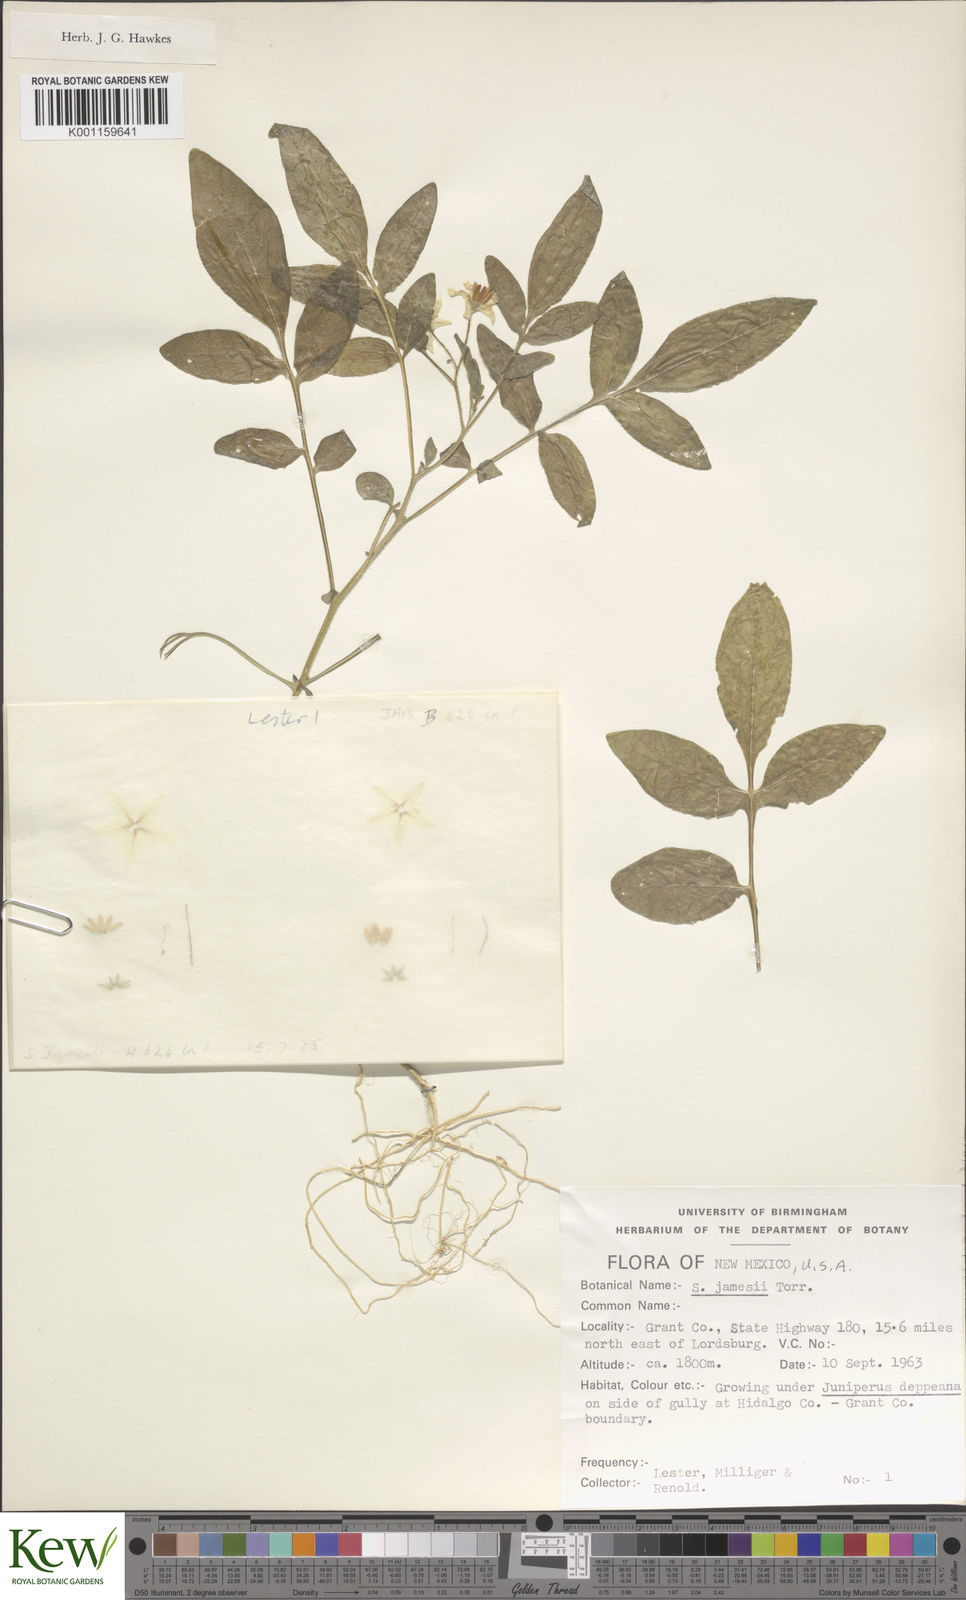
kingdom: Plantae
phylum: Tracheophyta
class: Magnoliopsida
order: Solanales
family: Solanaceae
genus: Solanum
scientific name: Solanum jamesii
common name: Wild potato
